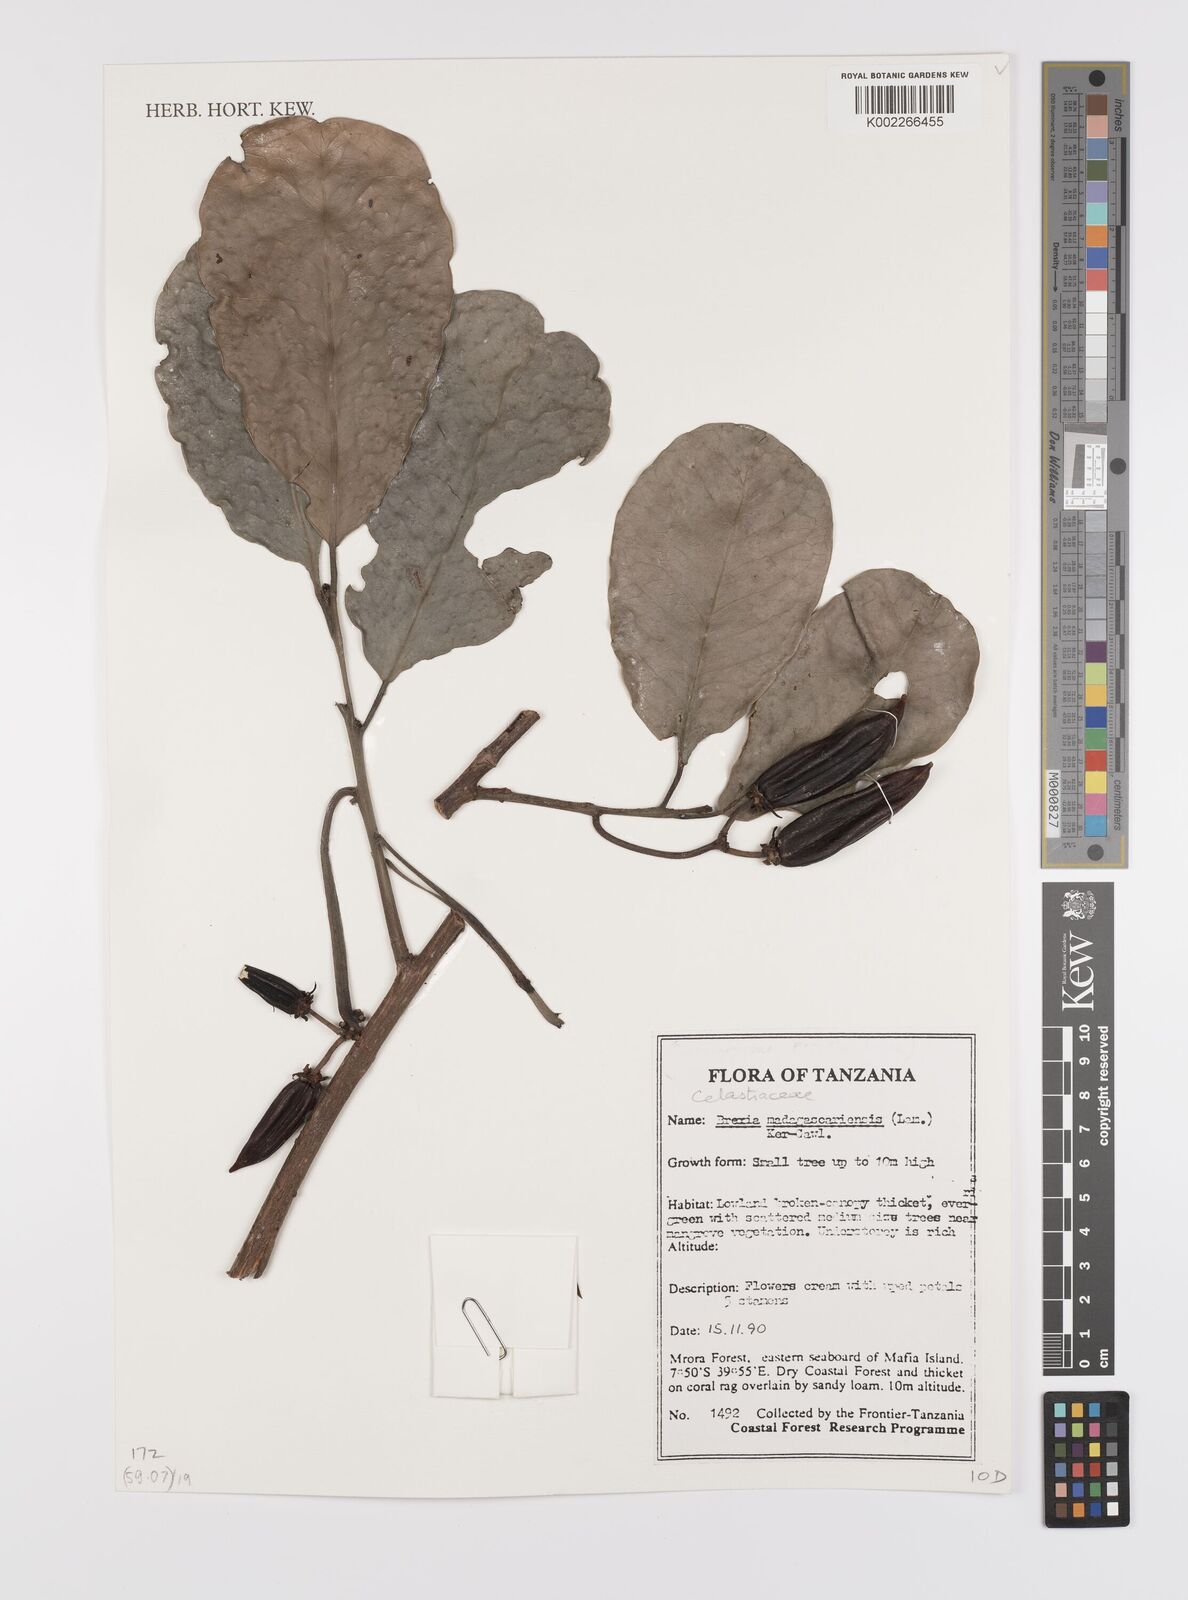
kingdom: Plantae
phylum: Tracheophyta
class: Magnoliopsida
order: Celastrales
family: Celastraceae
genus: Brexia
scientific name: Brexia madagascariensis
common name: Brexia
